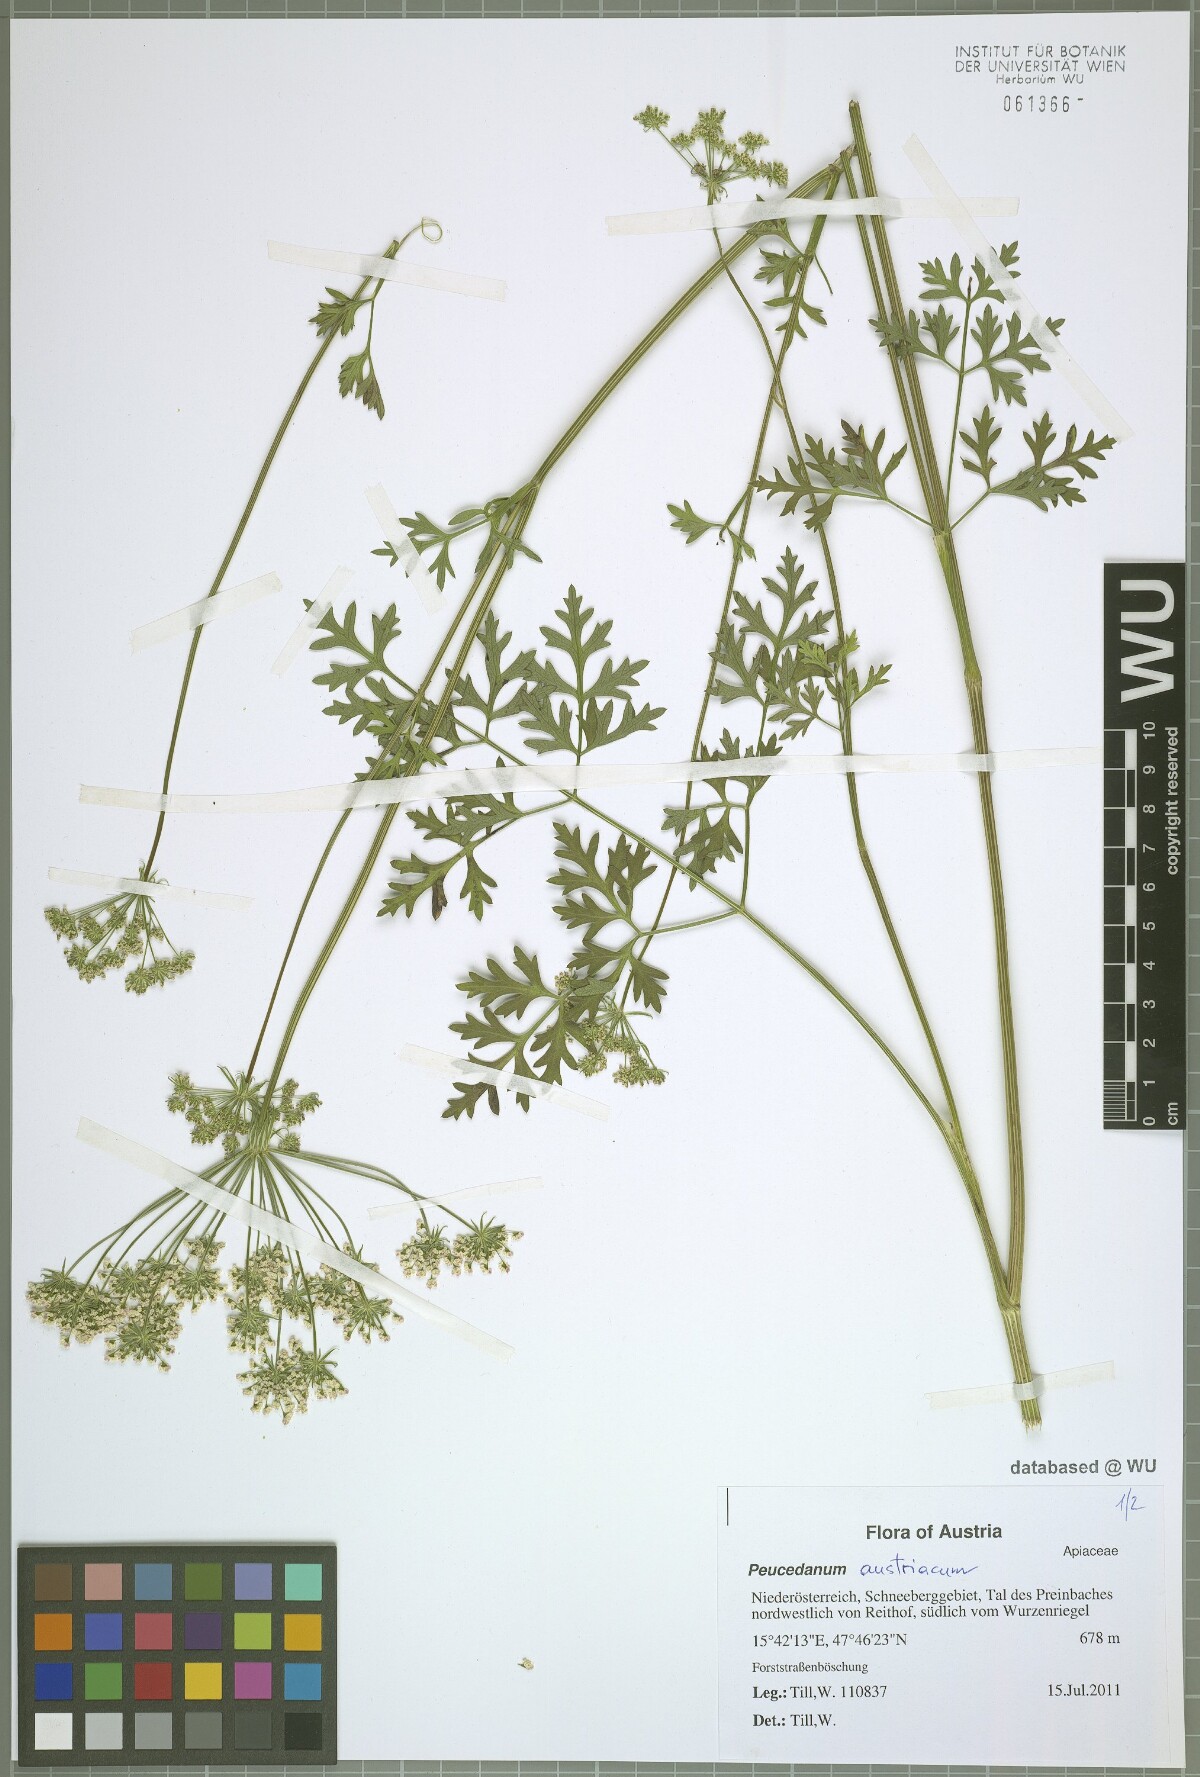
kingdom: Plantae
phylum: Tracheophyta
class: Magnoliopsida
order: Apiales
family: Apiaceae
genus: Peucedanum
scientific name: Peucedanum austriacum
